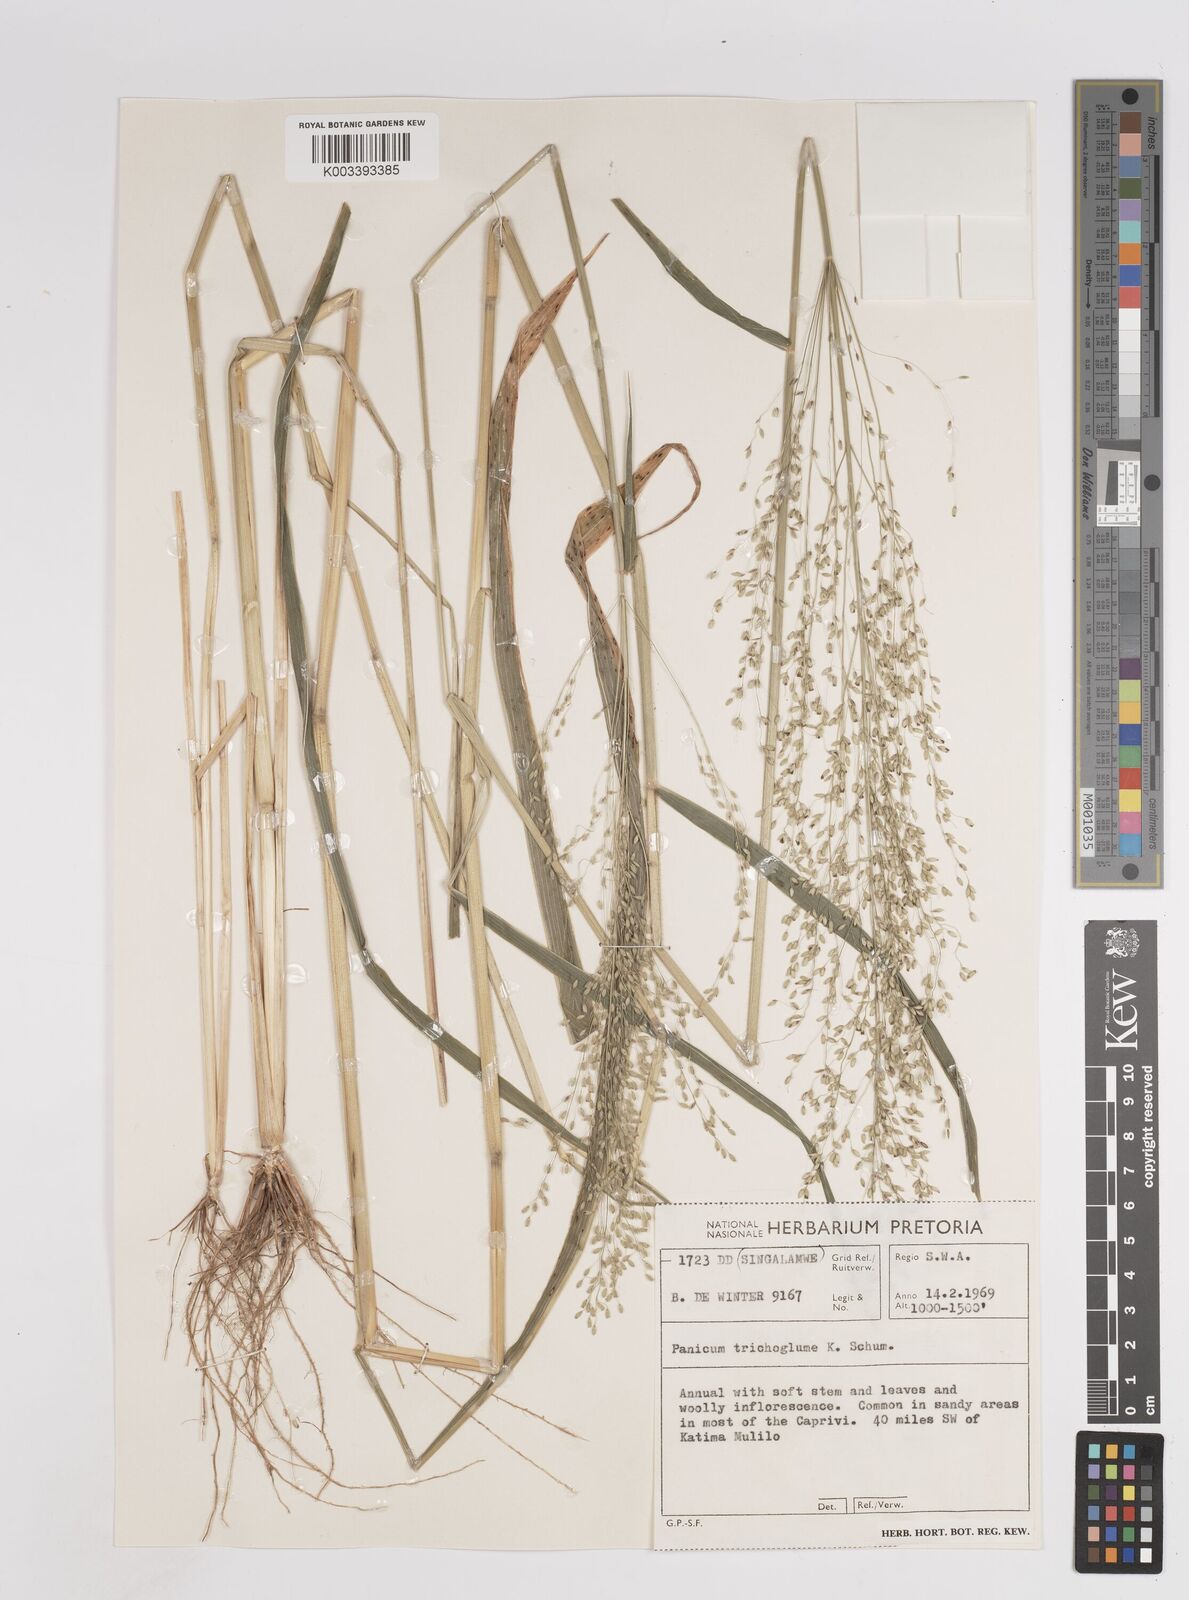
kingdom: Plantae
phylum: Tracheophyta
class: Liliopsida
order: Poales
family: Poaceae
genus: Megathyrsus
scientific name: Megathyrsus maximus
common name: Guineagrass
